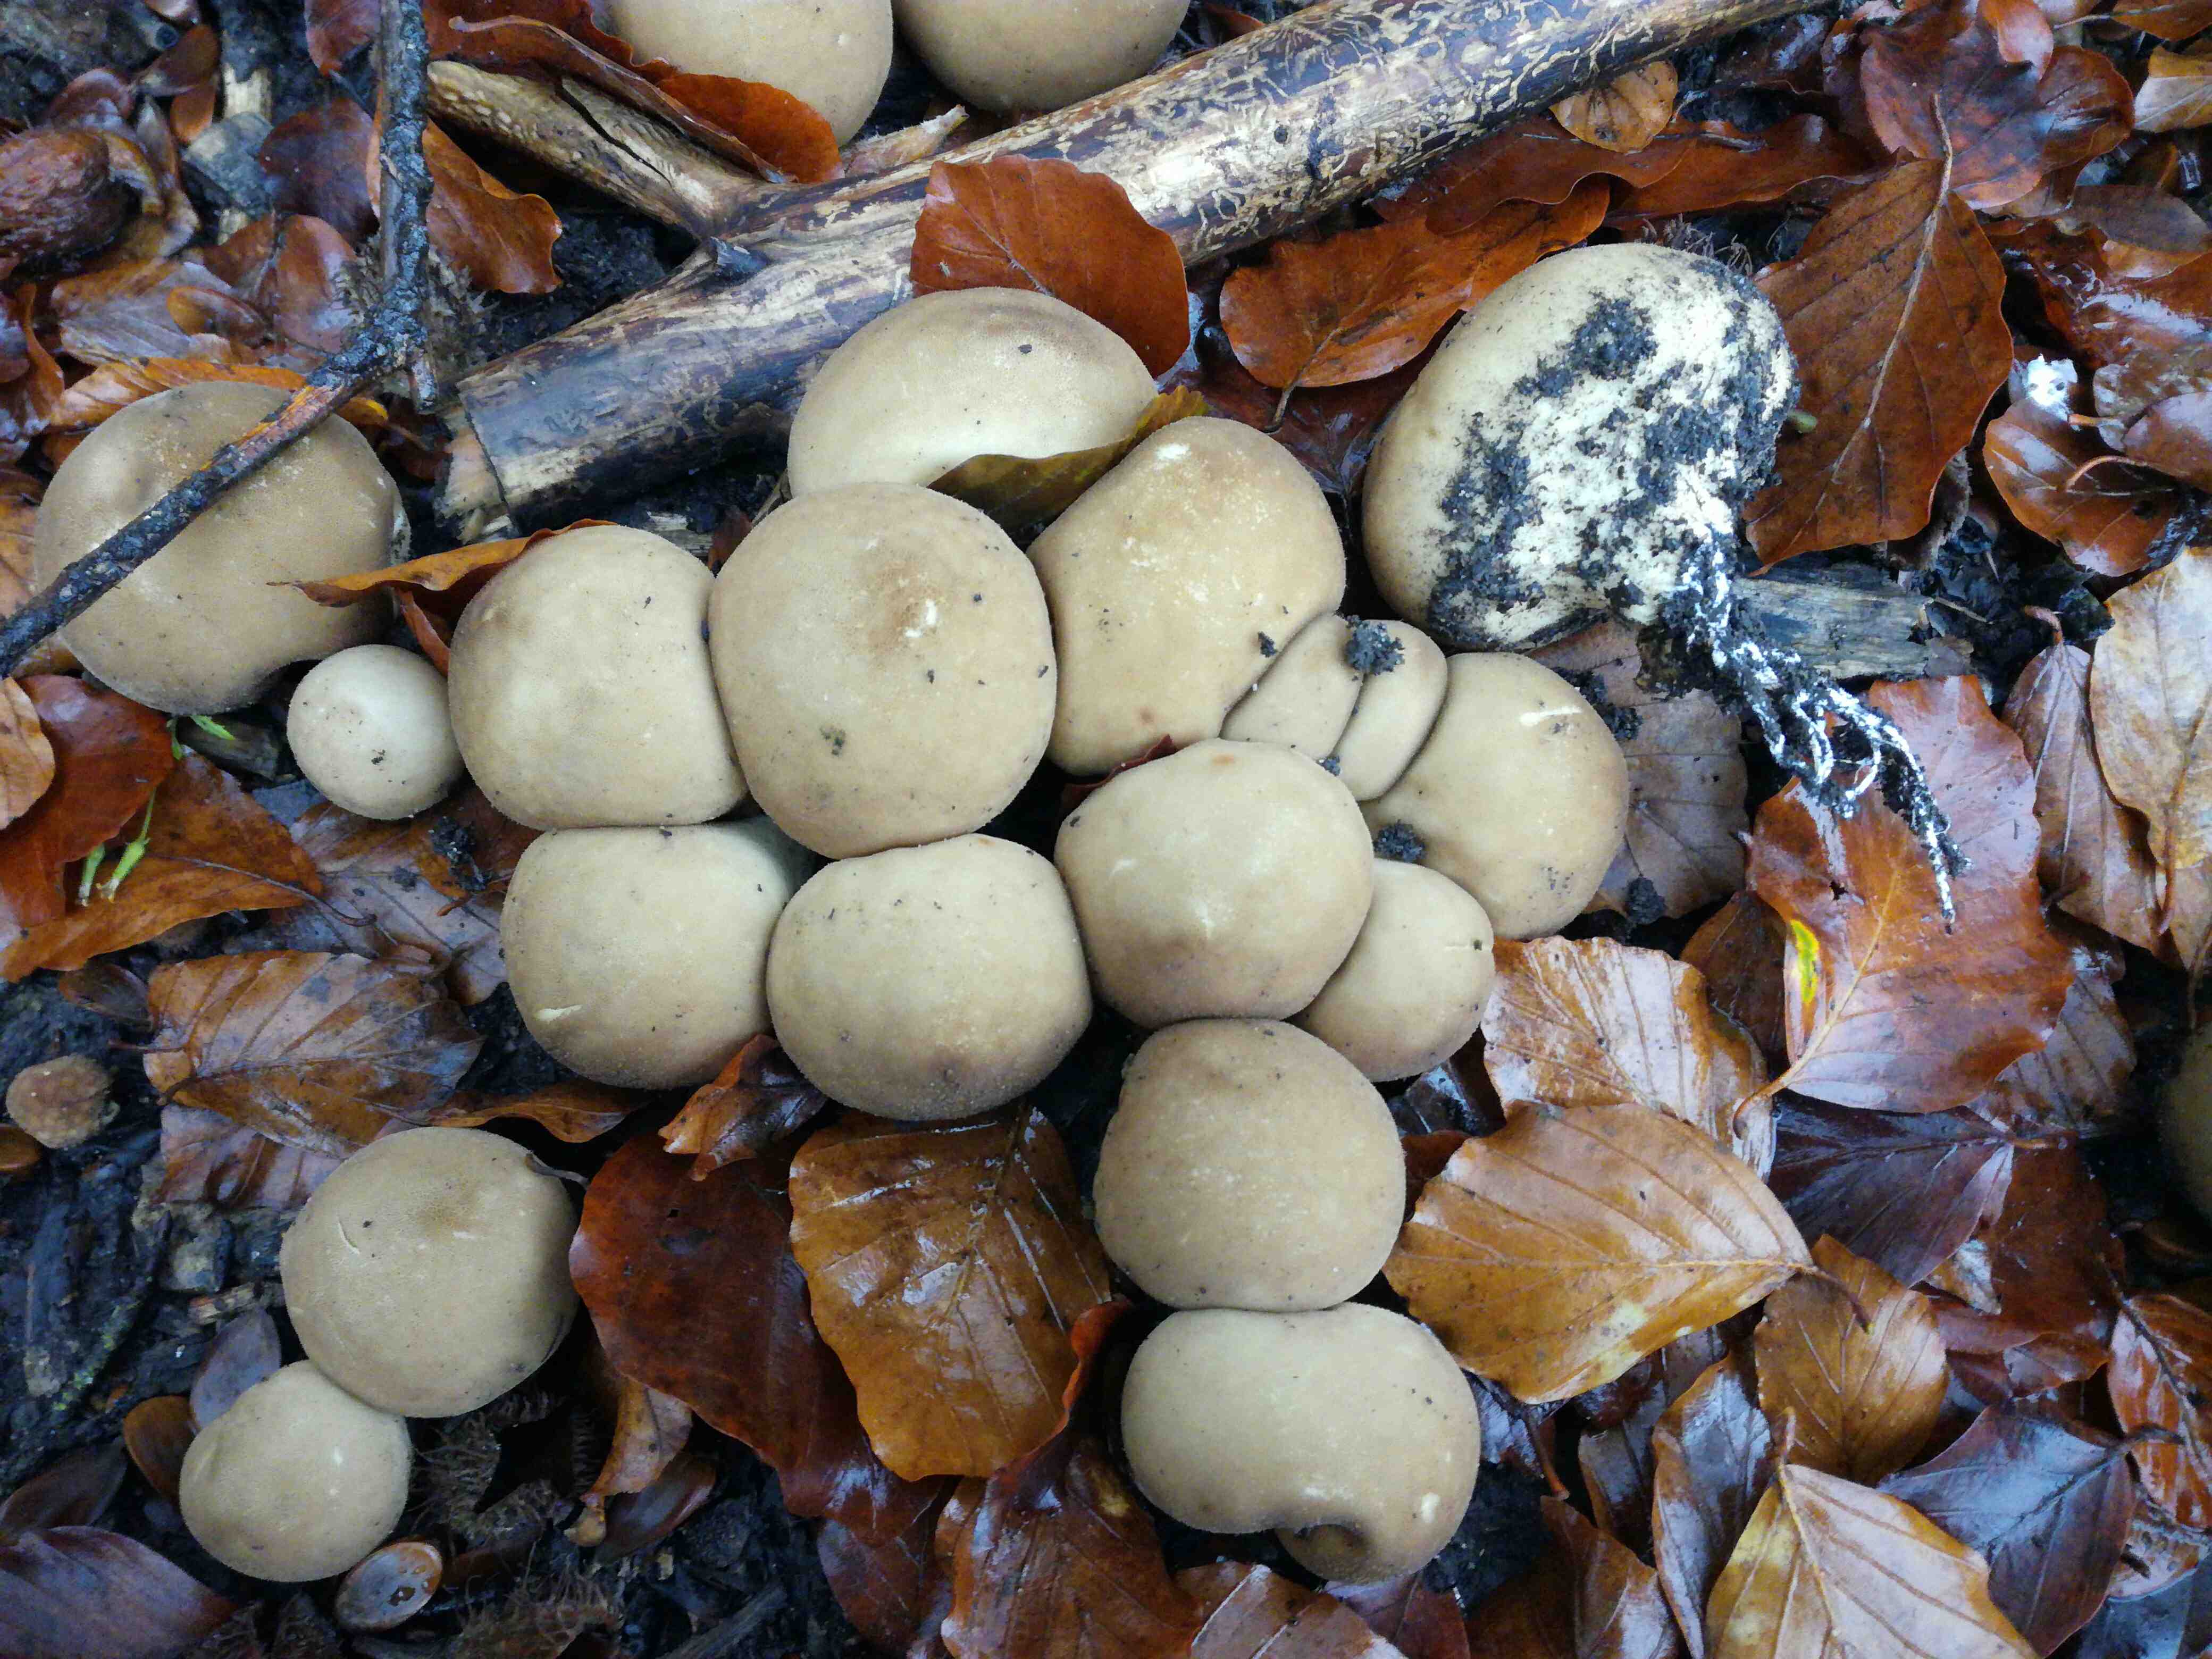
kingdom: Fungi
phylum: Basidiomycota
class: Agaricomycetes
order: Agaricales
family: Lycoperdaceae
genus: Apioperdon
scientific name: Apioperdon pyriforme
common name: pære-støvbold
